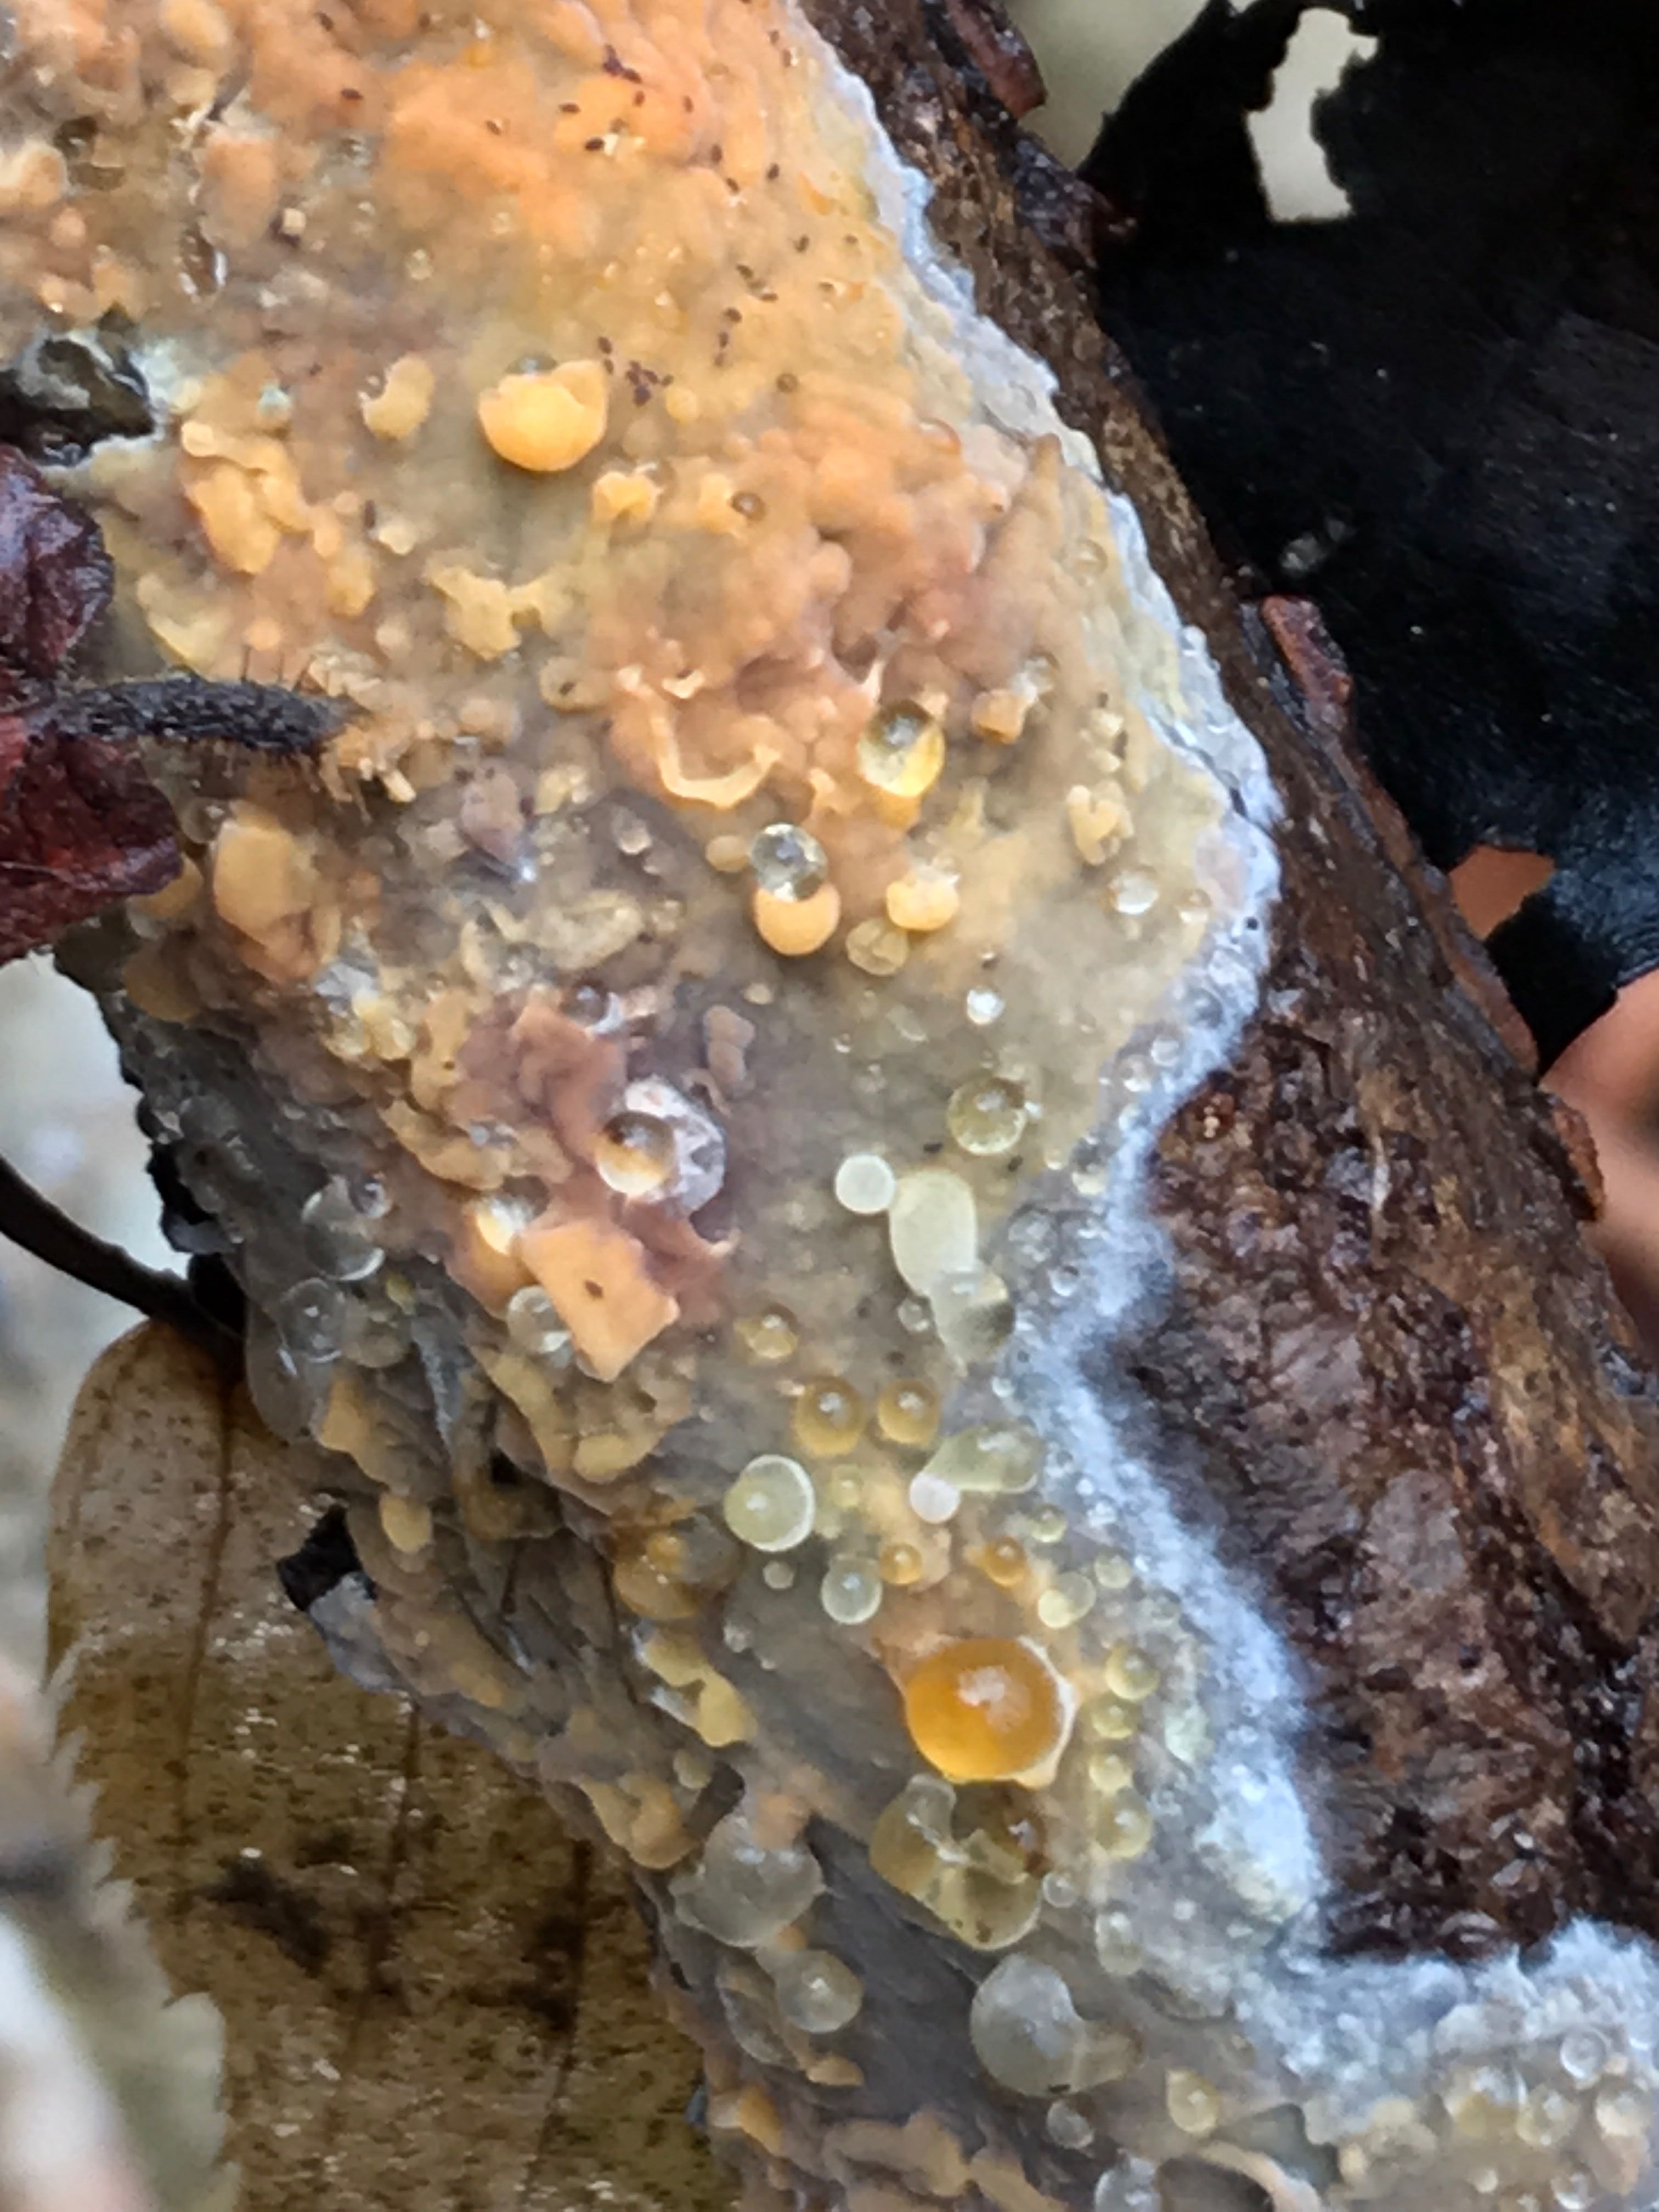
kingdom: Fungi
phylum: Basidiomycota
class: Agaricomycetes
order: Russulales
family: Peniophoraceae
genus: Peniophora
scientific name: Peniophora incarnata
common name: laksefarvet voksskind
